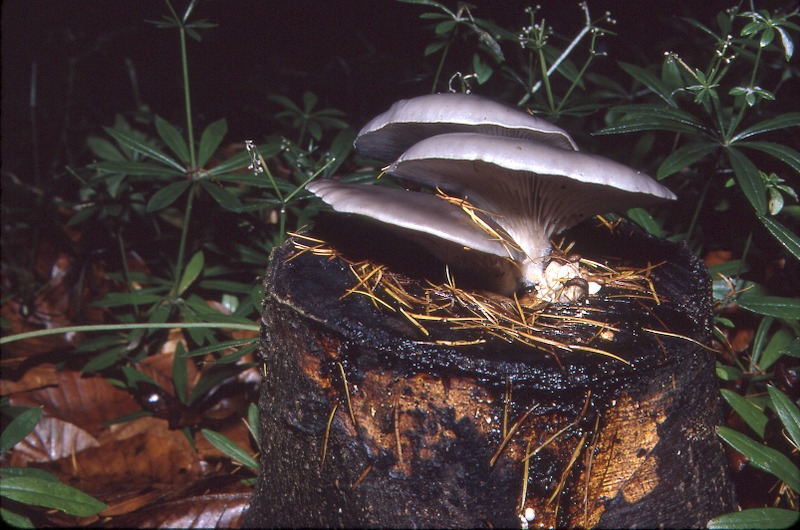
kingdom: Fungi
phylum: Basidiomycota
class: Agaricomycetes
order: Agaricales
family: Pleurotaceae
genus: Pleurotus
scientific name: Pleurotus ostreatus
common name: Oyster mushroom
